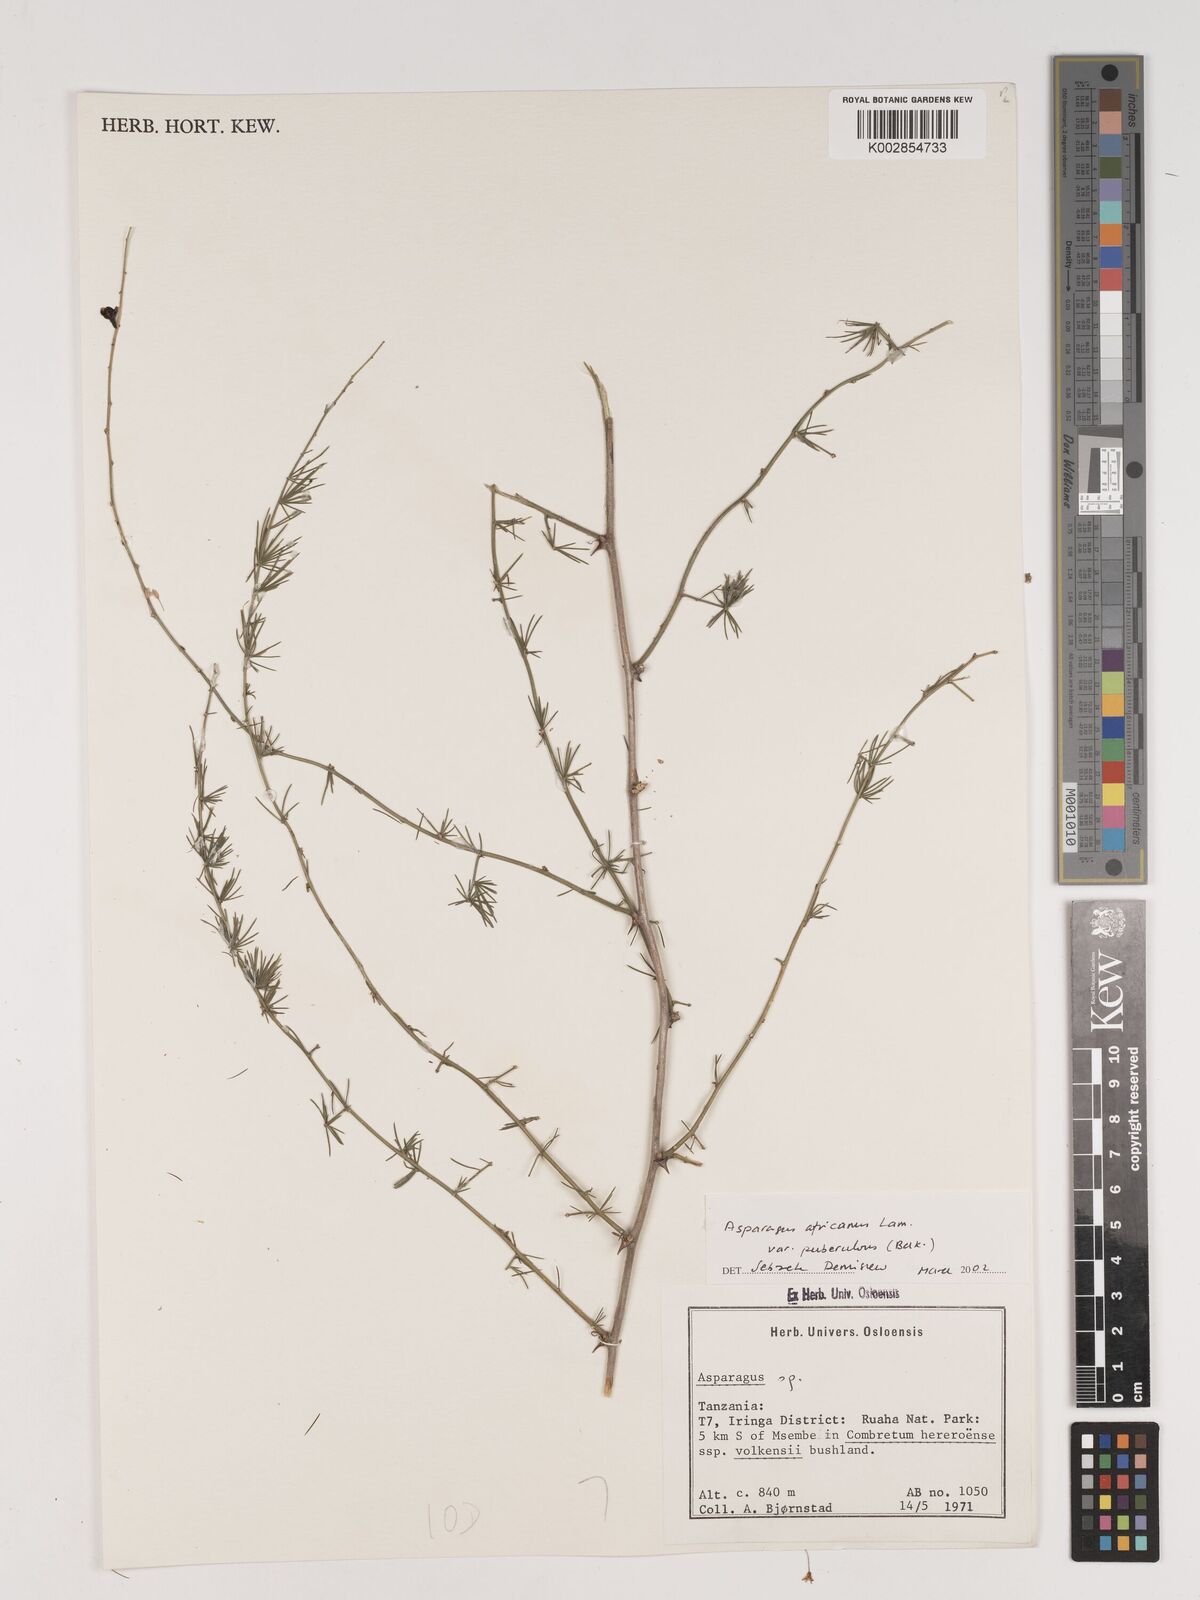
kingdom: Plantae
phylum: Tracheophyta
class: Liliopsida
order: Asparagales
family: Asparagaceae
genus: Asparagus
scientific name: Asparagus africanus
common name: Asparagus-fern
